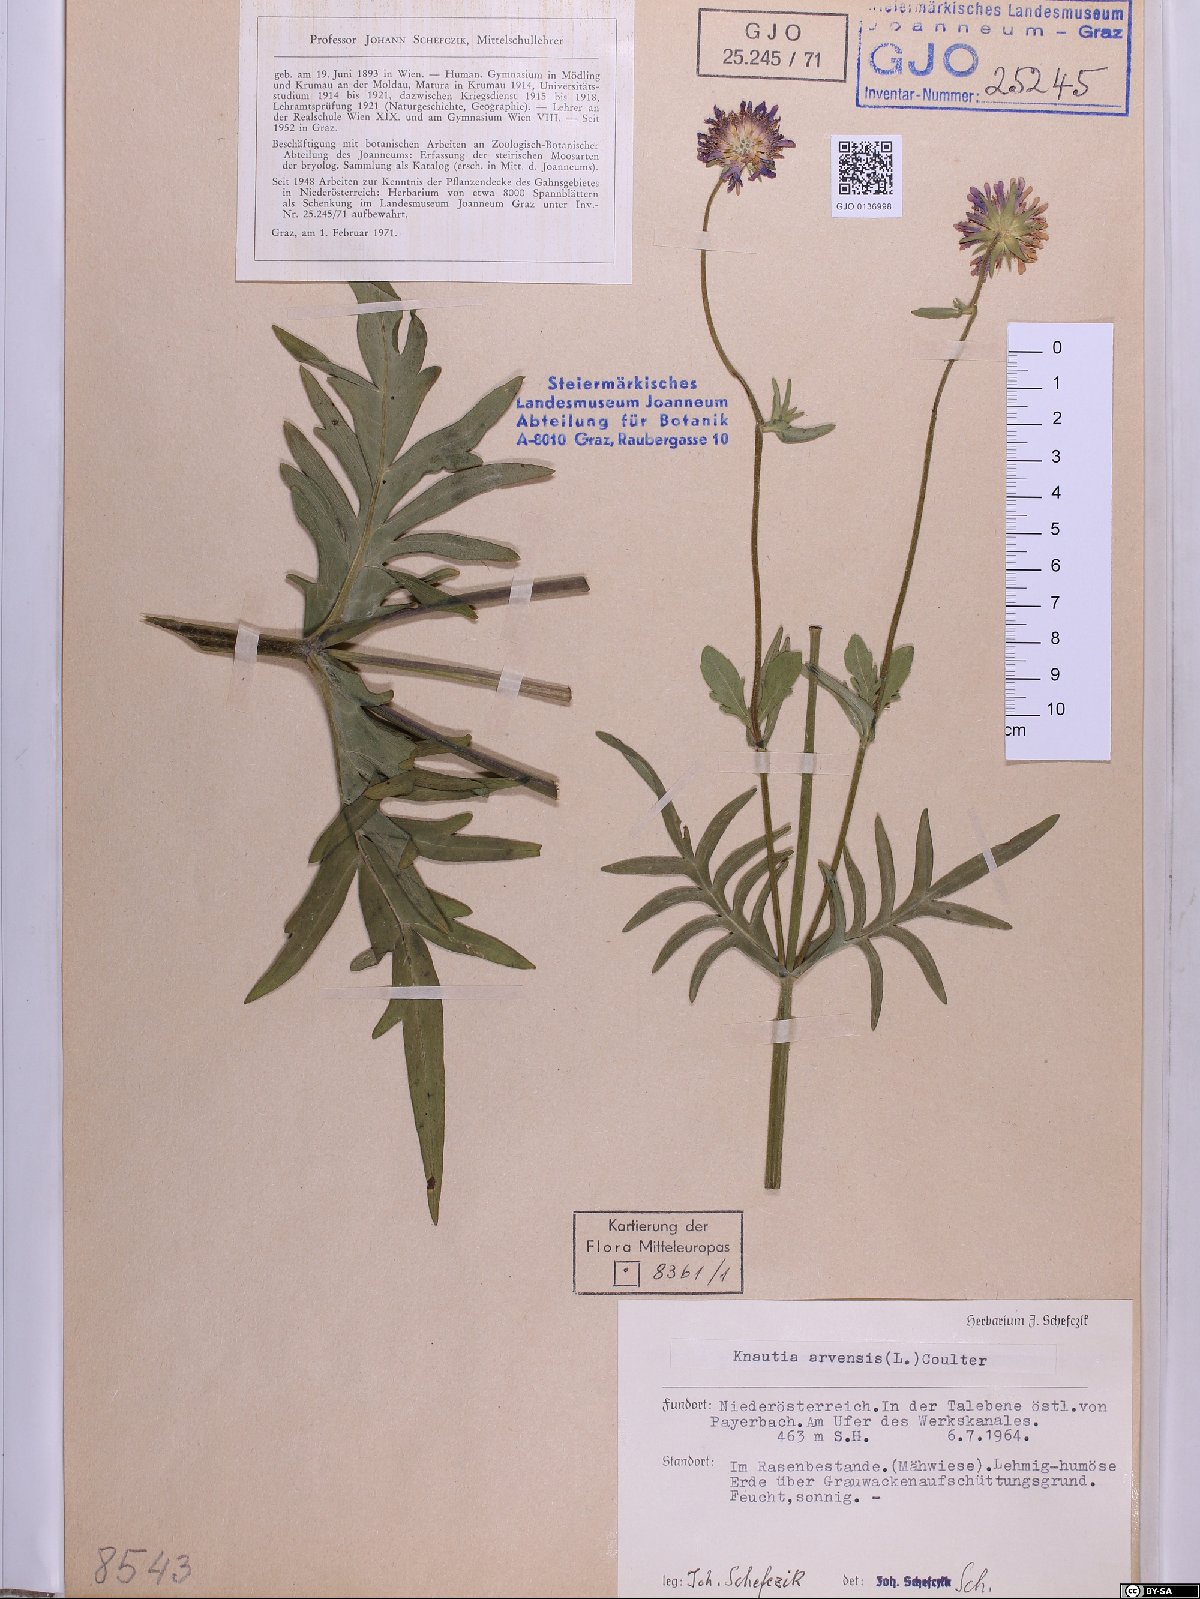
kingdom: Plantae
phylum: Tracheophyta
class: Magnoliopsida
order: Dipsacales
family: Caprifoliaceae
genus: Knautia
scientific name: Knautia arvensis
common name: Field scabiosa
